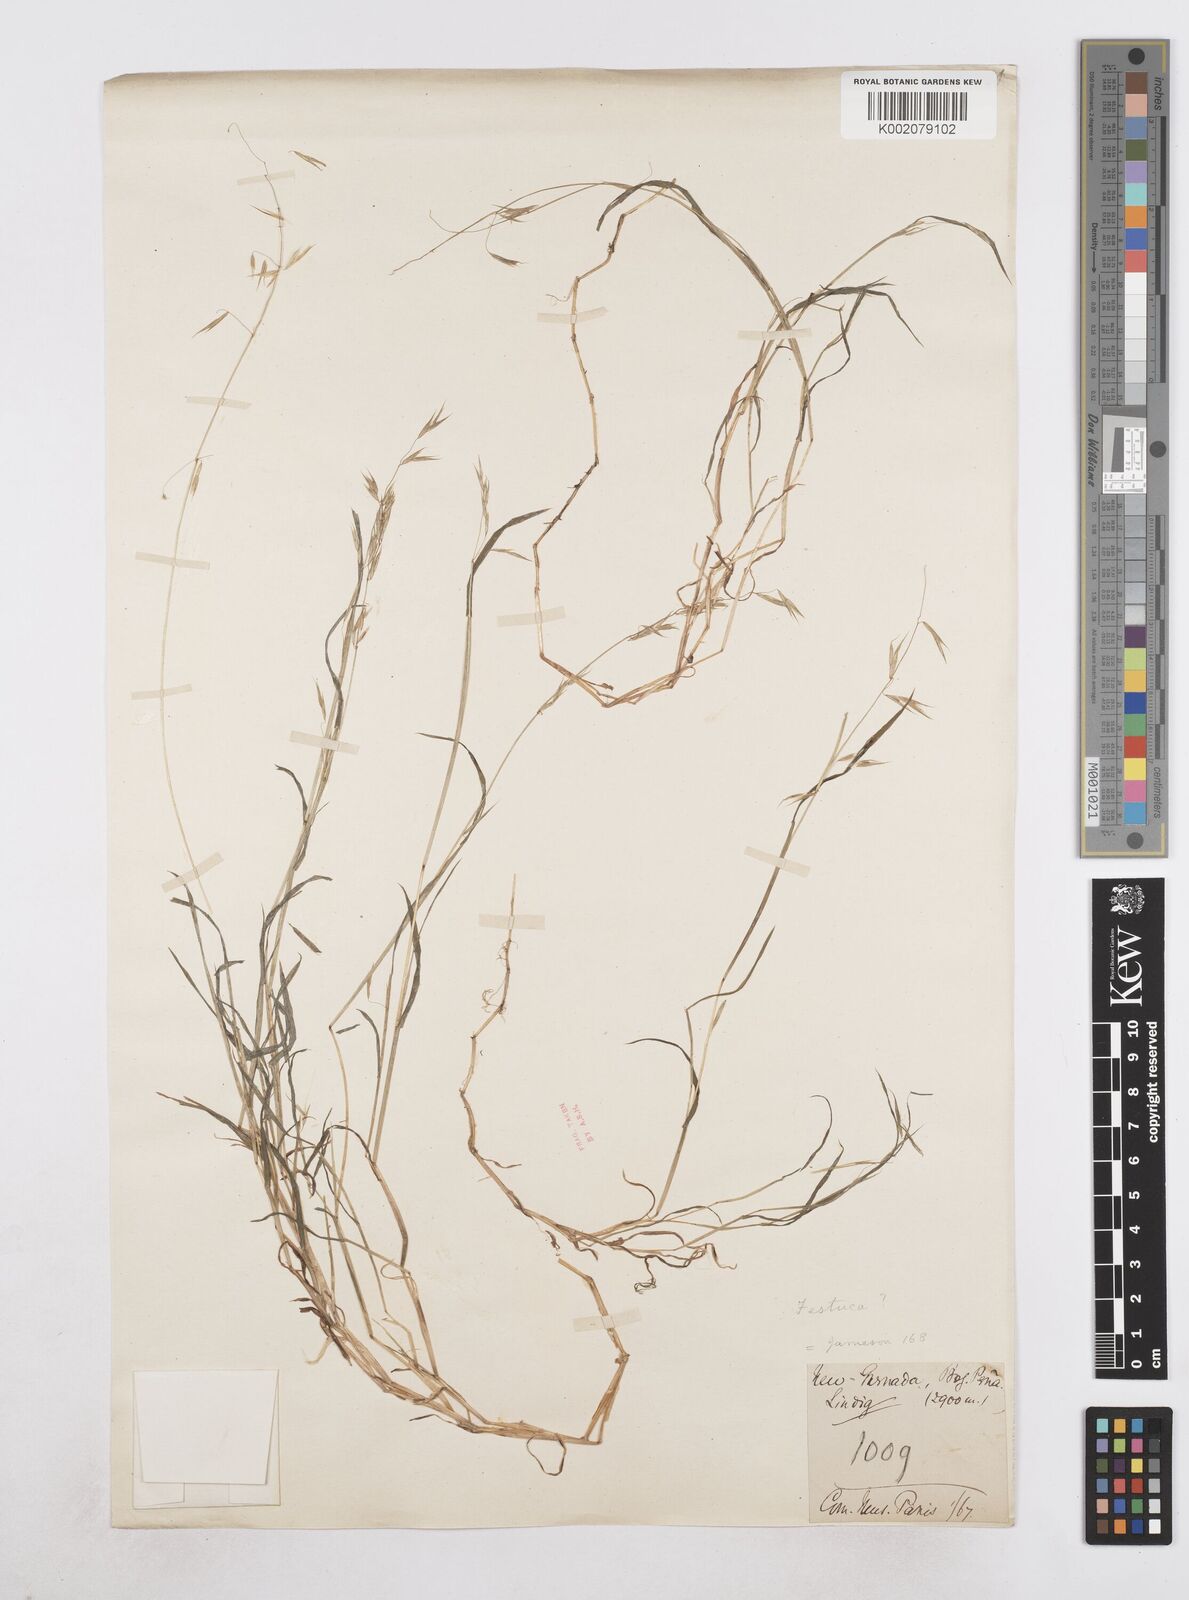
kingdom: Plantae
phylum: Tracheophyta
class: Liliopsida
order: Poales
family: Poaceae
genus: Poa
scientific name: Poa hitchcockiana
